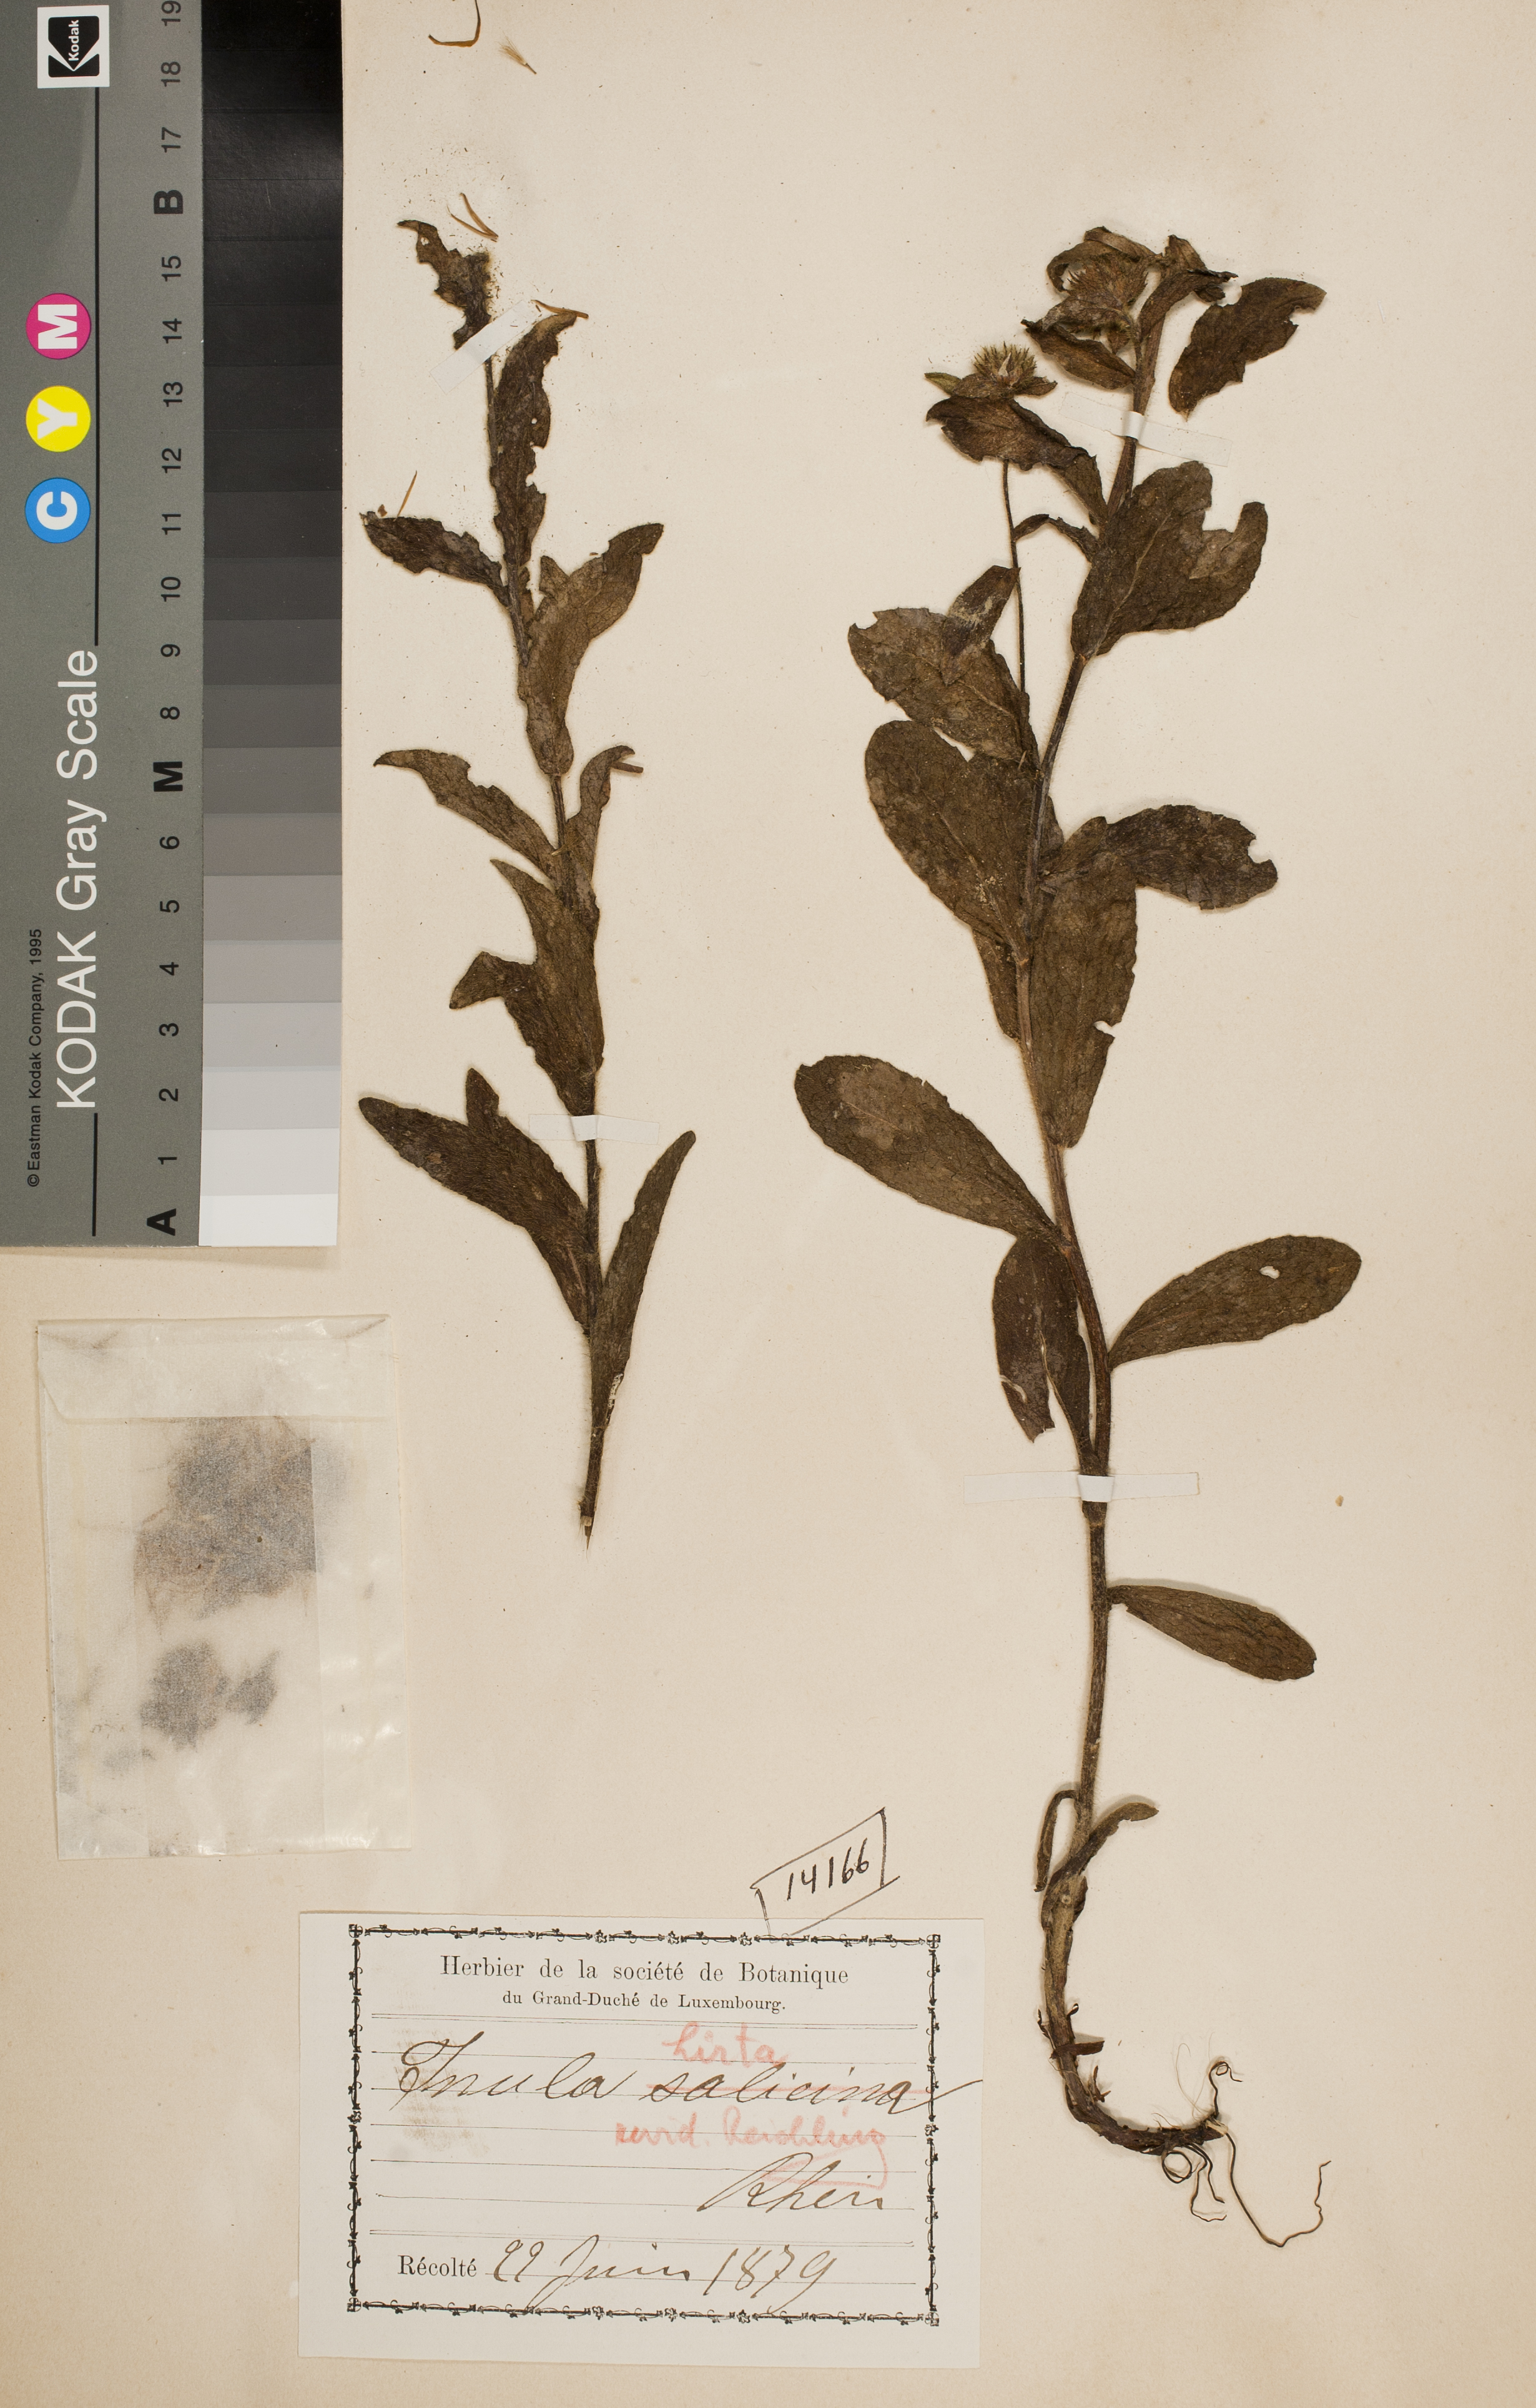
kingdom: Plantae
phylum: Tracheophyta
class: Magnoliopsida
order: Asterales
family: Asteraceae
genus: Pentanema
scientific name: Pentanema hirtum
